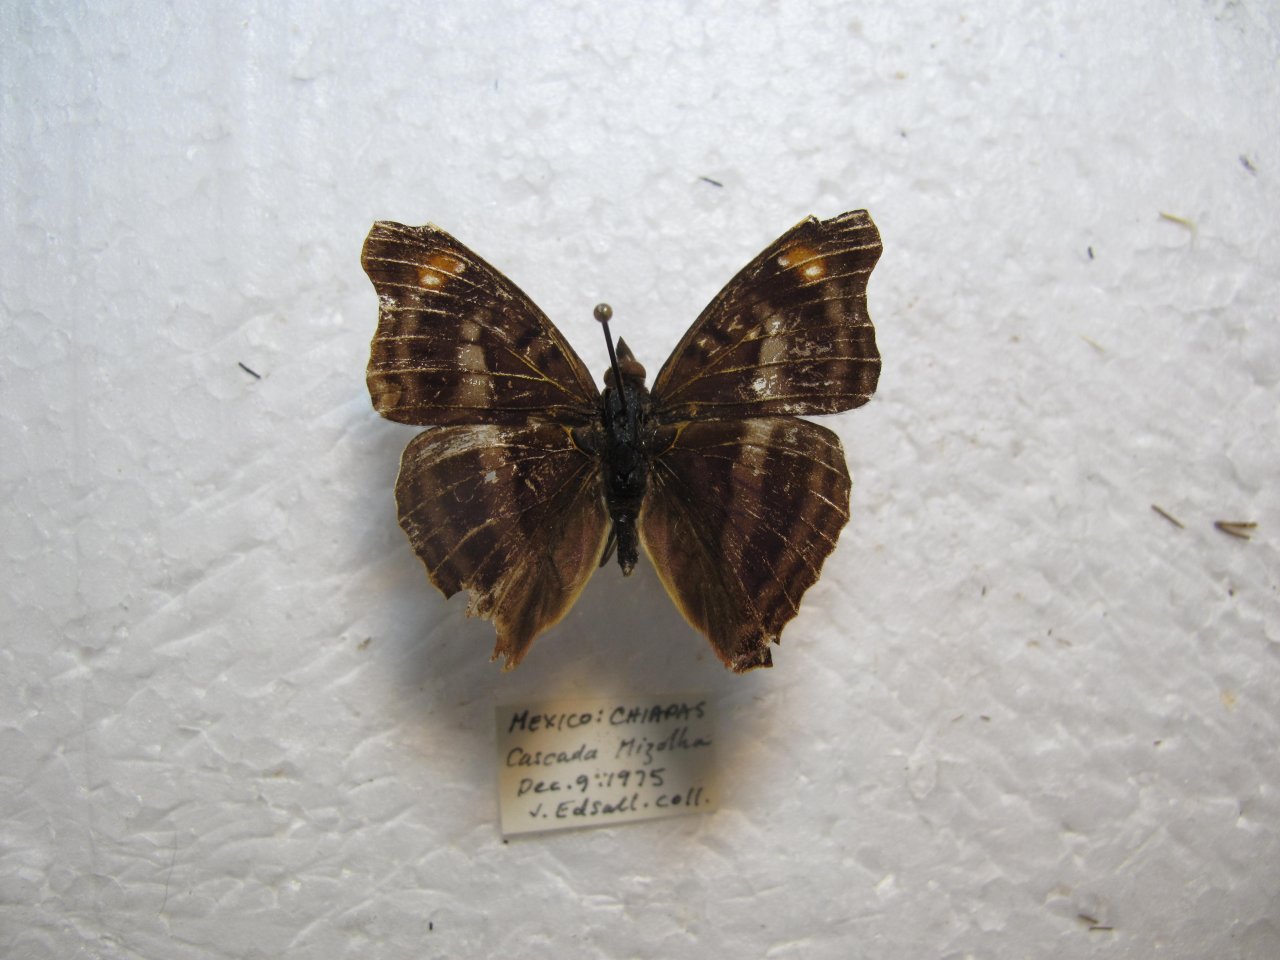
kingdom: Animalia
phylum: Arthropoda
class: Insecta
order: Lepidoptera
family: Nymphalidae
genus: Doxocopa
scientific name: Doxocopa pavon
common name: Pavon Emperor
